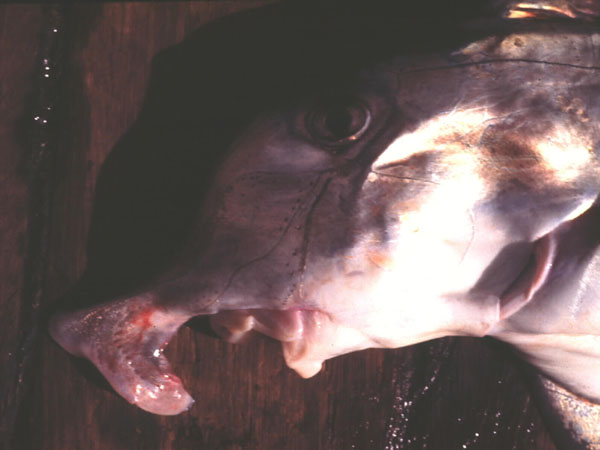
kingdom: Animalia
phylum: Chordata
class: Holocephali
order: Chimaeriformes
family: Callorhinchidae
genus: Callorhinchus
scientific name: Callorhinchus capensis
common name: Cape elephantfish
